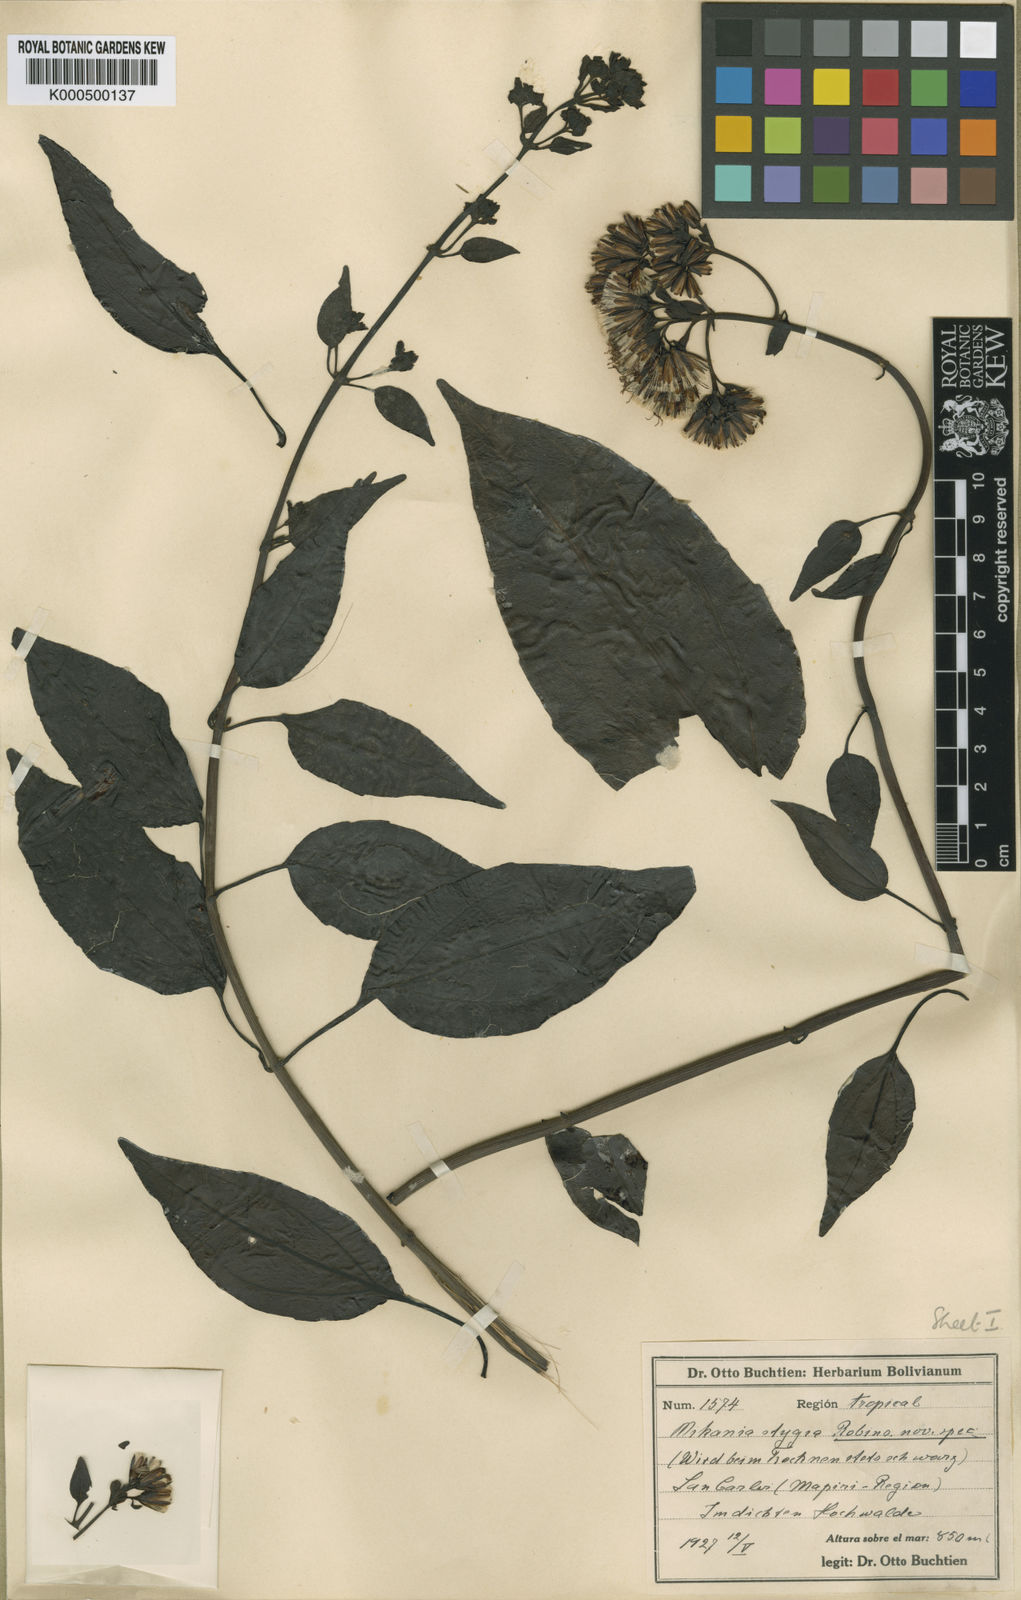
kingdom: Plantae
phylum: Tracheophyta
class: Magnoliopsida
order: Asterales
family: Asteraceae
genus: Mikania
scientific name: Mikania stygia
